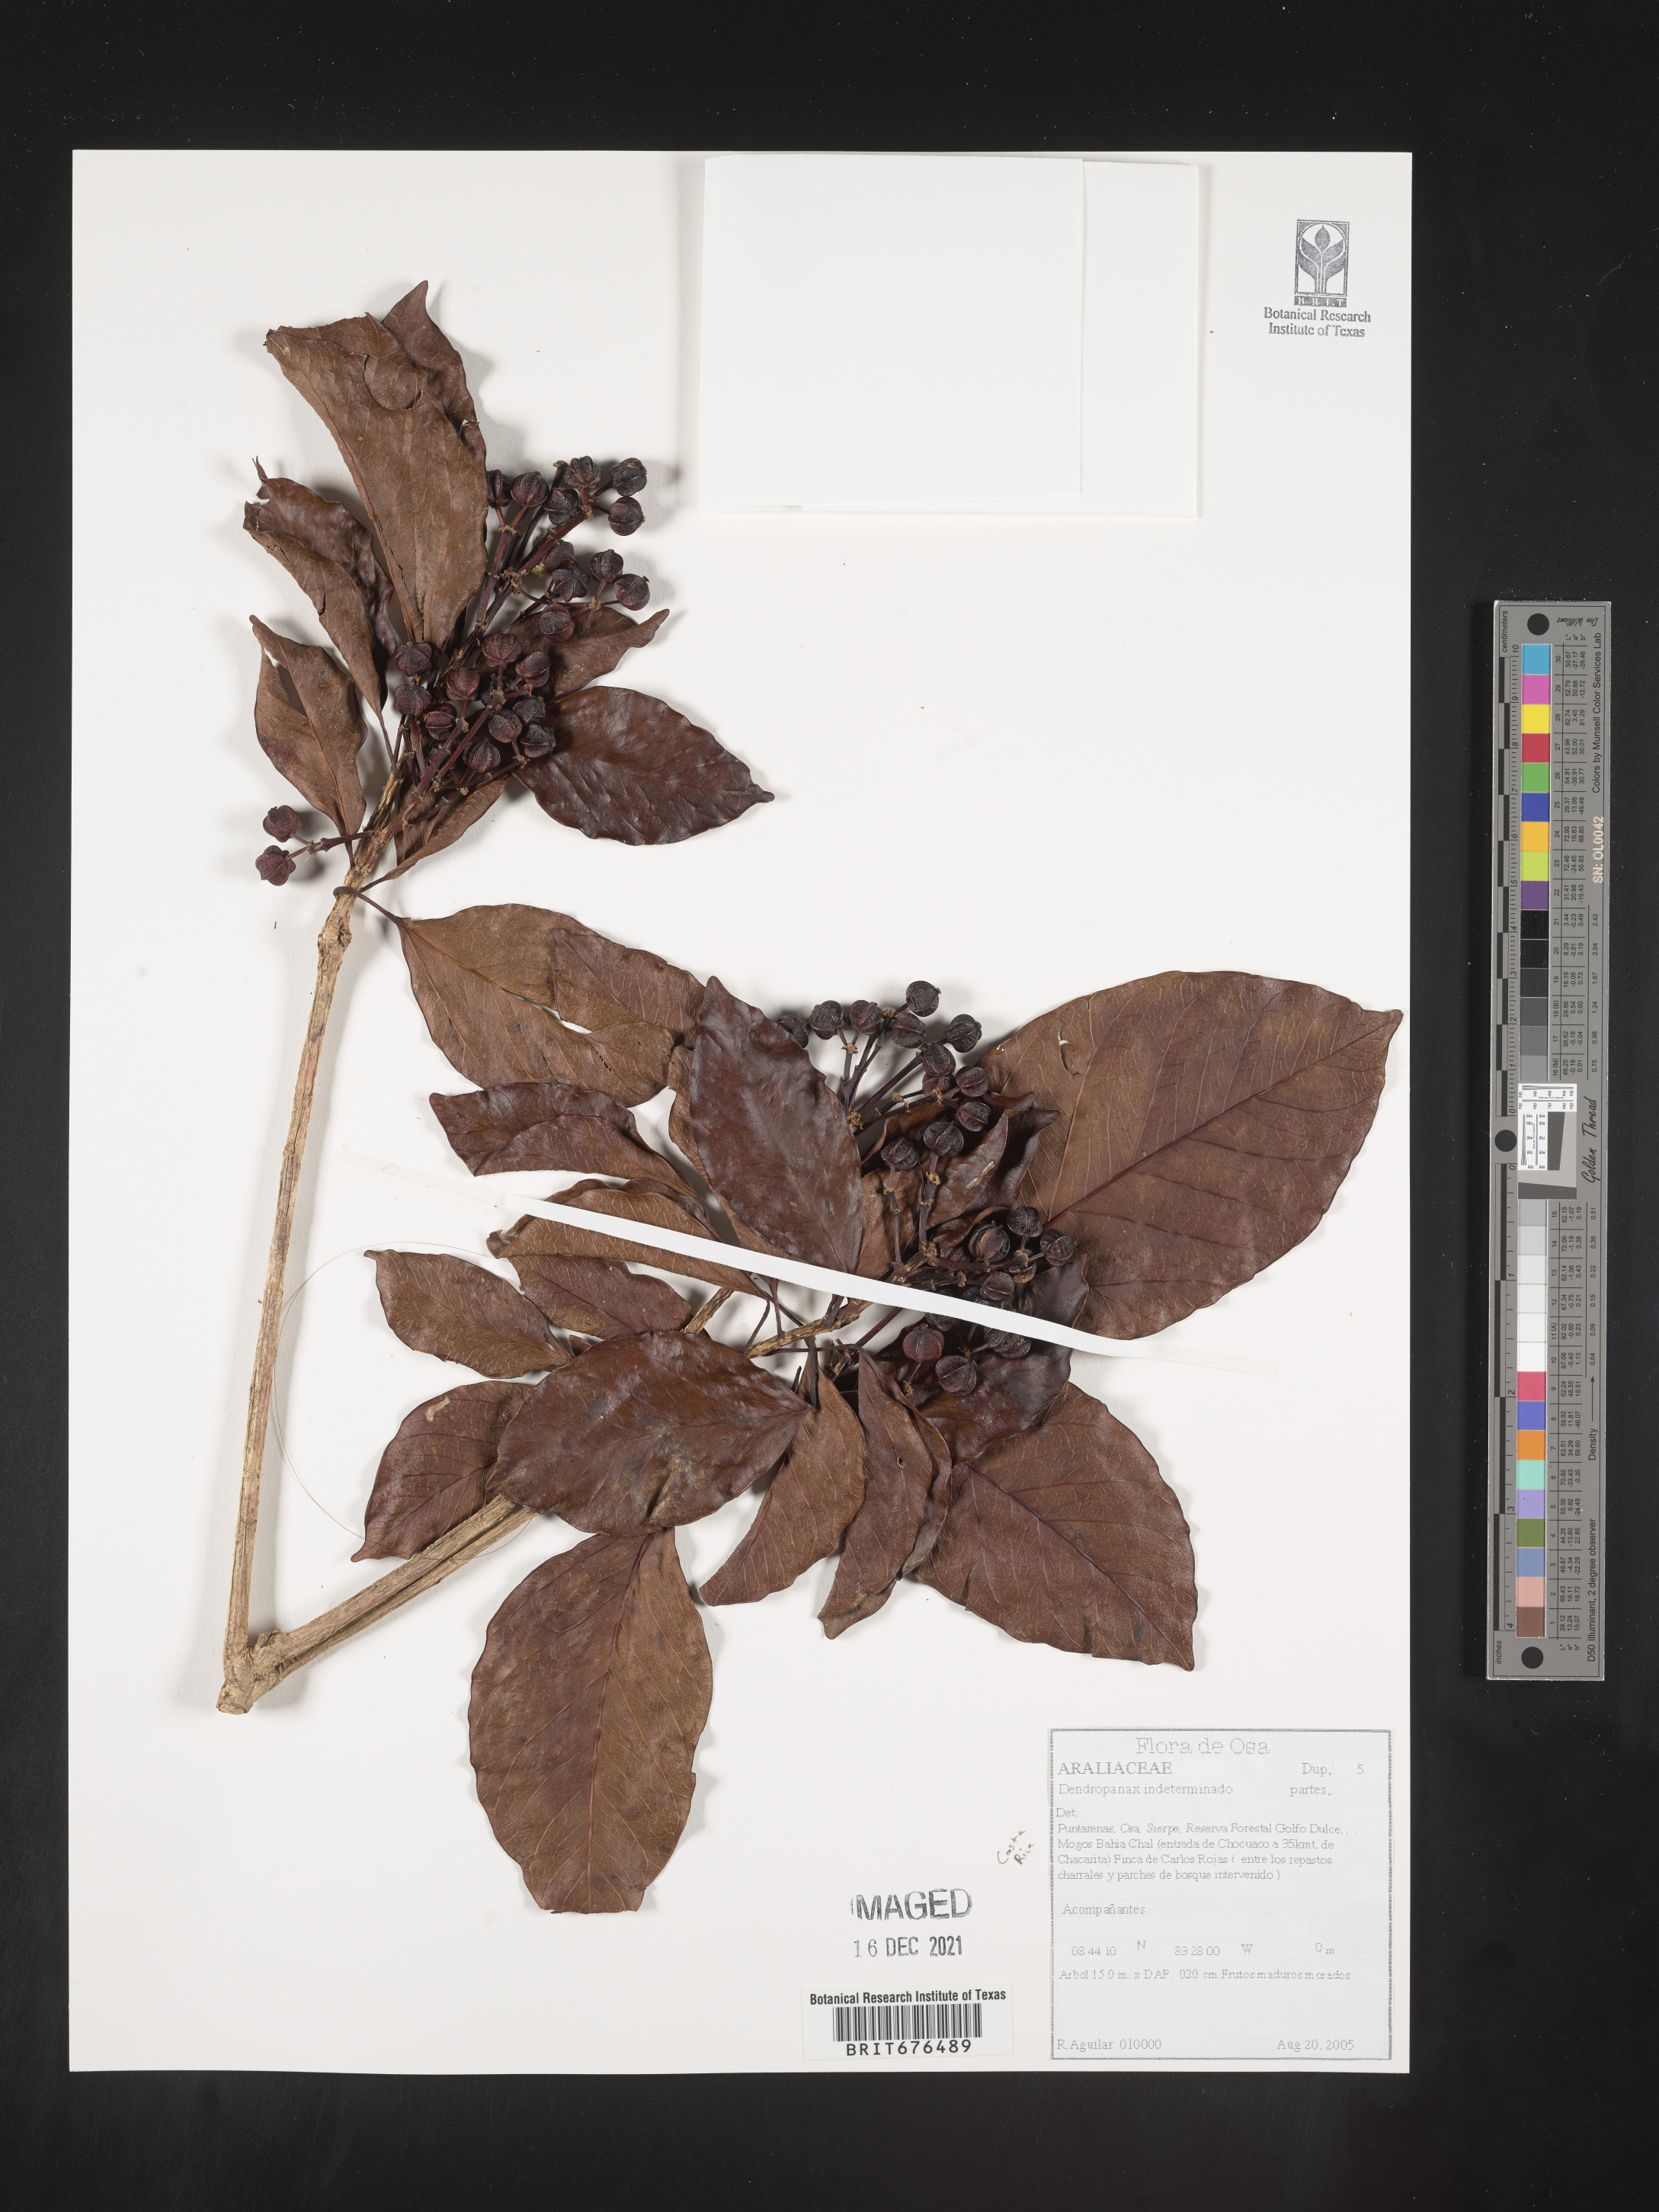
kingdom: Plantae
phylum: Tracheophyta
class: Magnoliopsida
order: Apiales
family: Araliaceae
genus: Dendropanax
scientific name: Dendropanax
